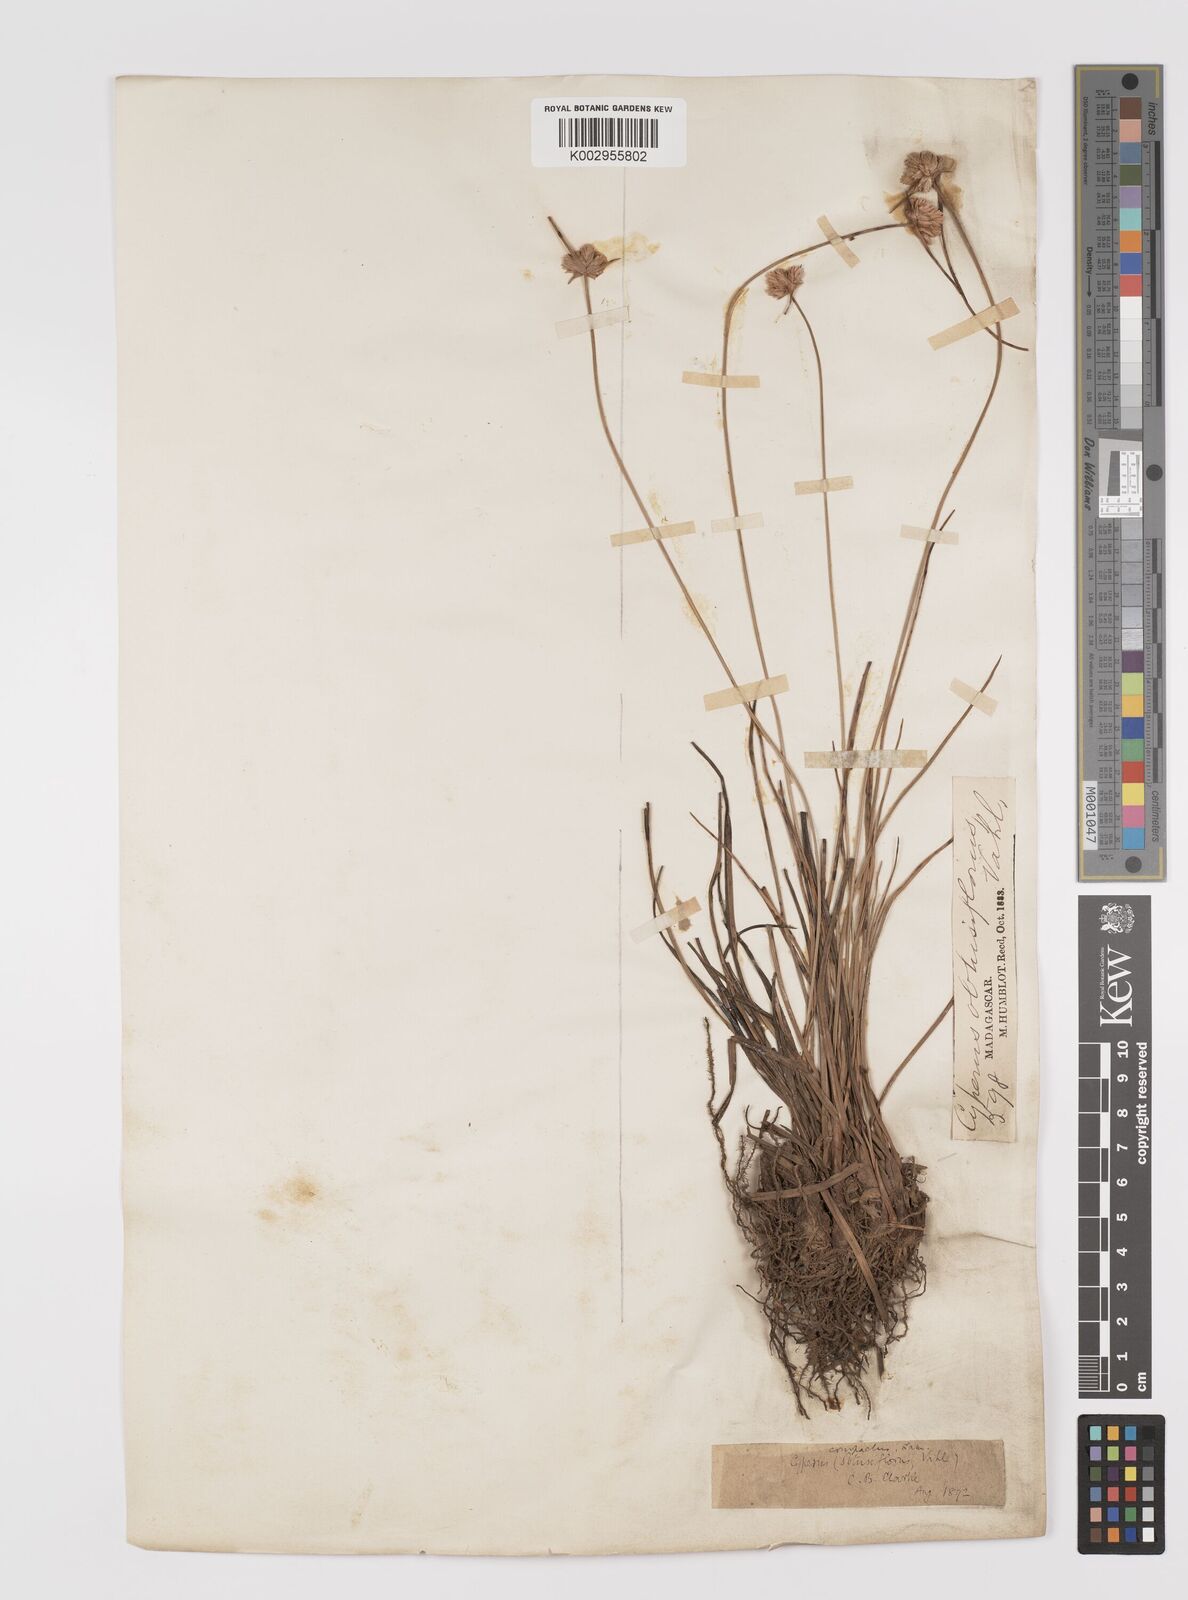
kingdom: Plantae
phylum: Tracheophyta
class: Liliopsida
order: Poales
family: Cyperaceae
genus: Cyperus
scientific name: Cyperus niveus
